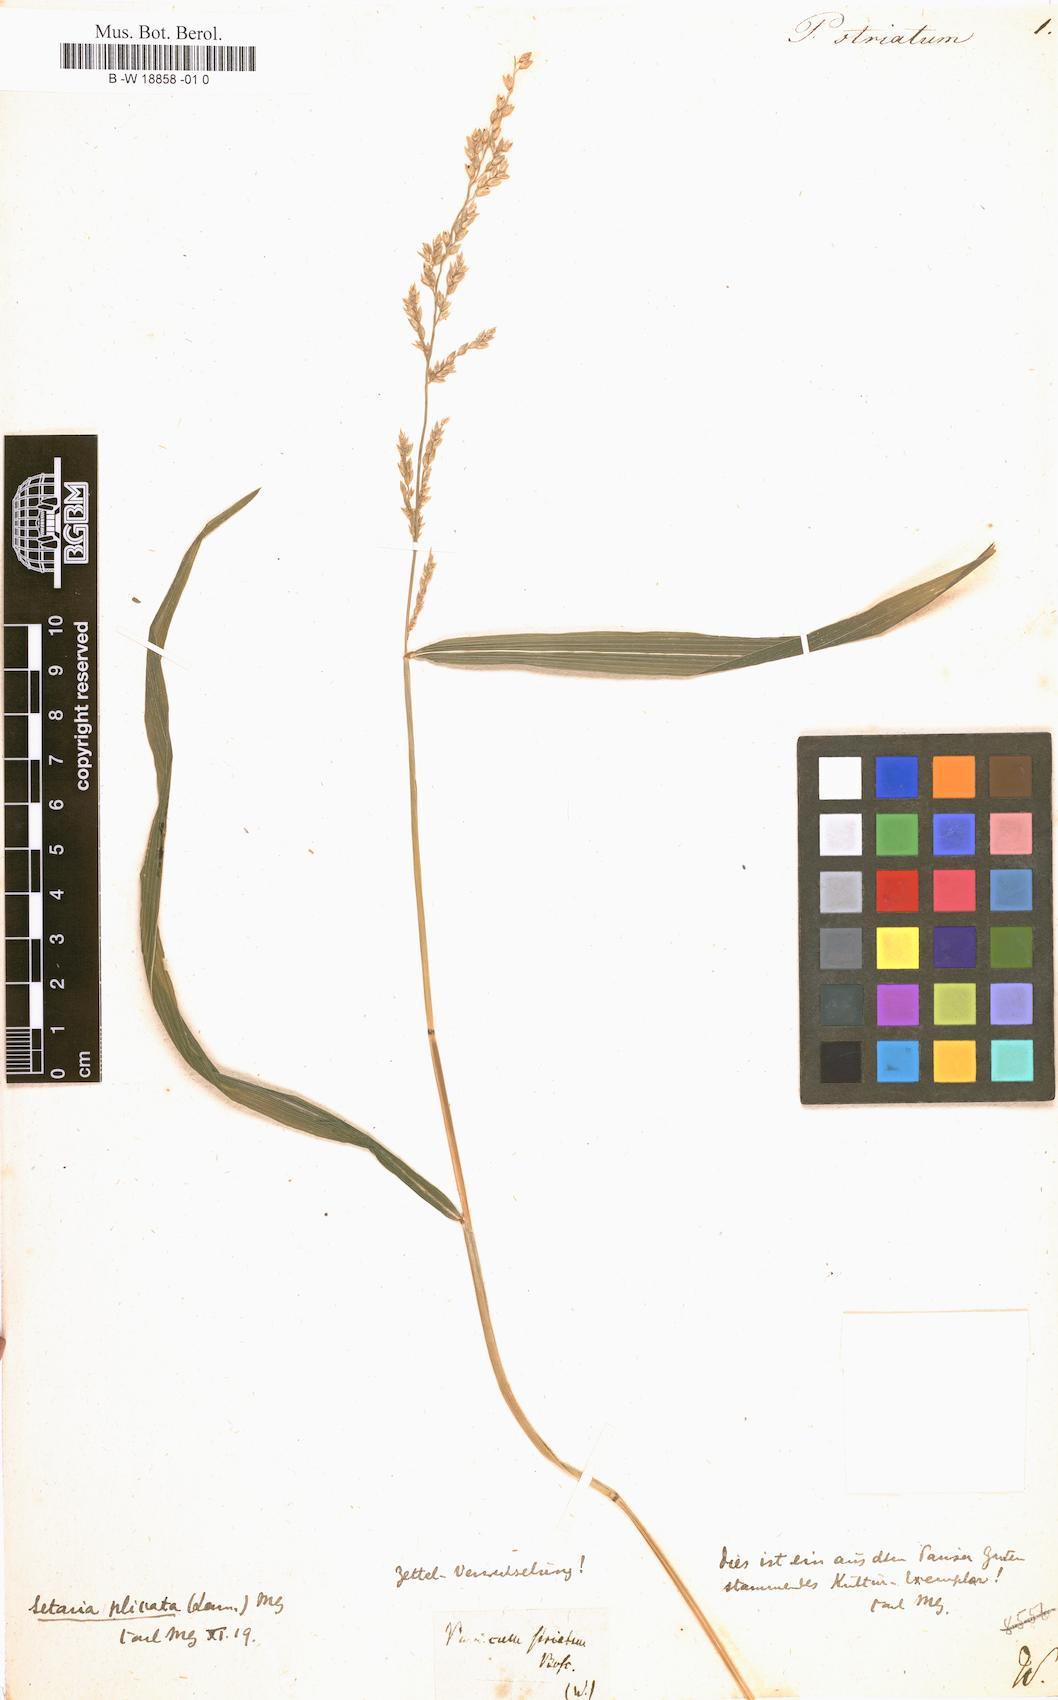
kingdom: Plantae
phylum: Tracheophyta
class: Liliopsida
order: Poales
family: Poaceae
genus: Panicum
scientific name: Panicum striatum
